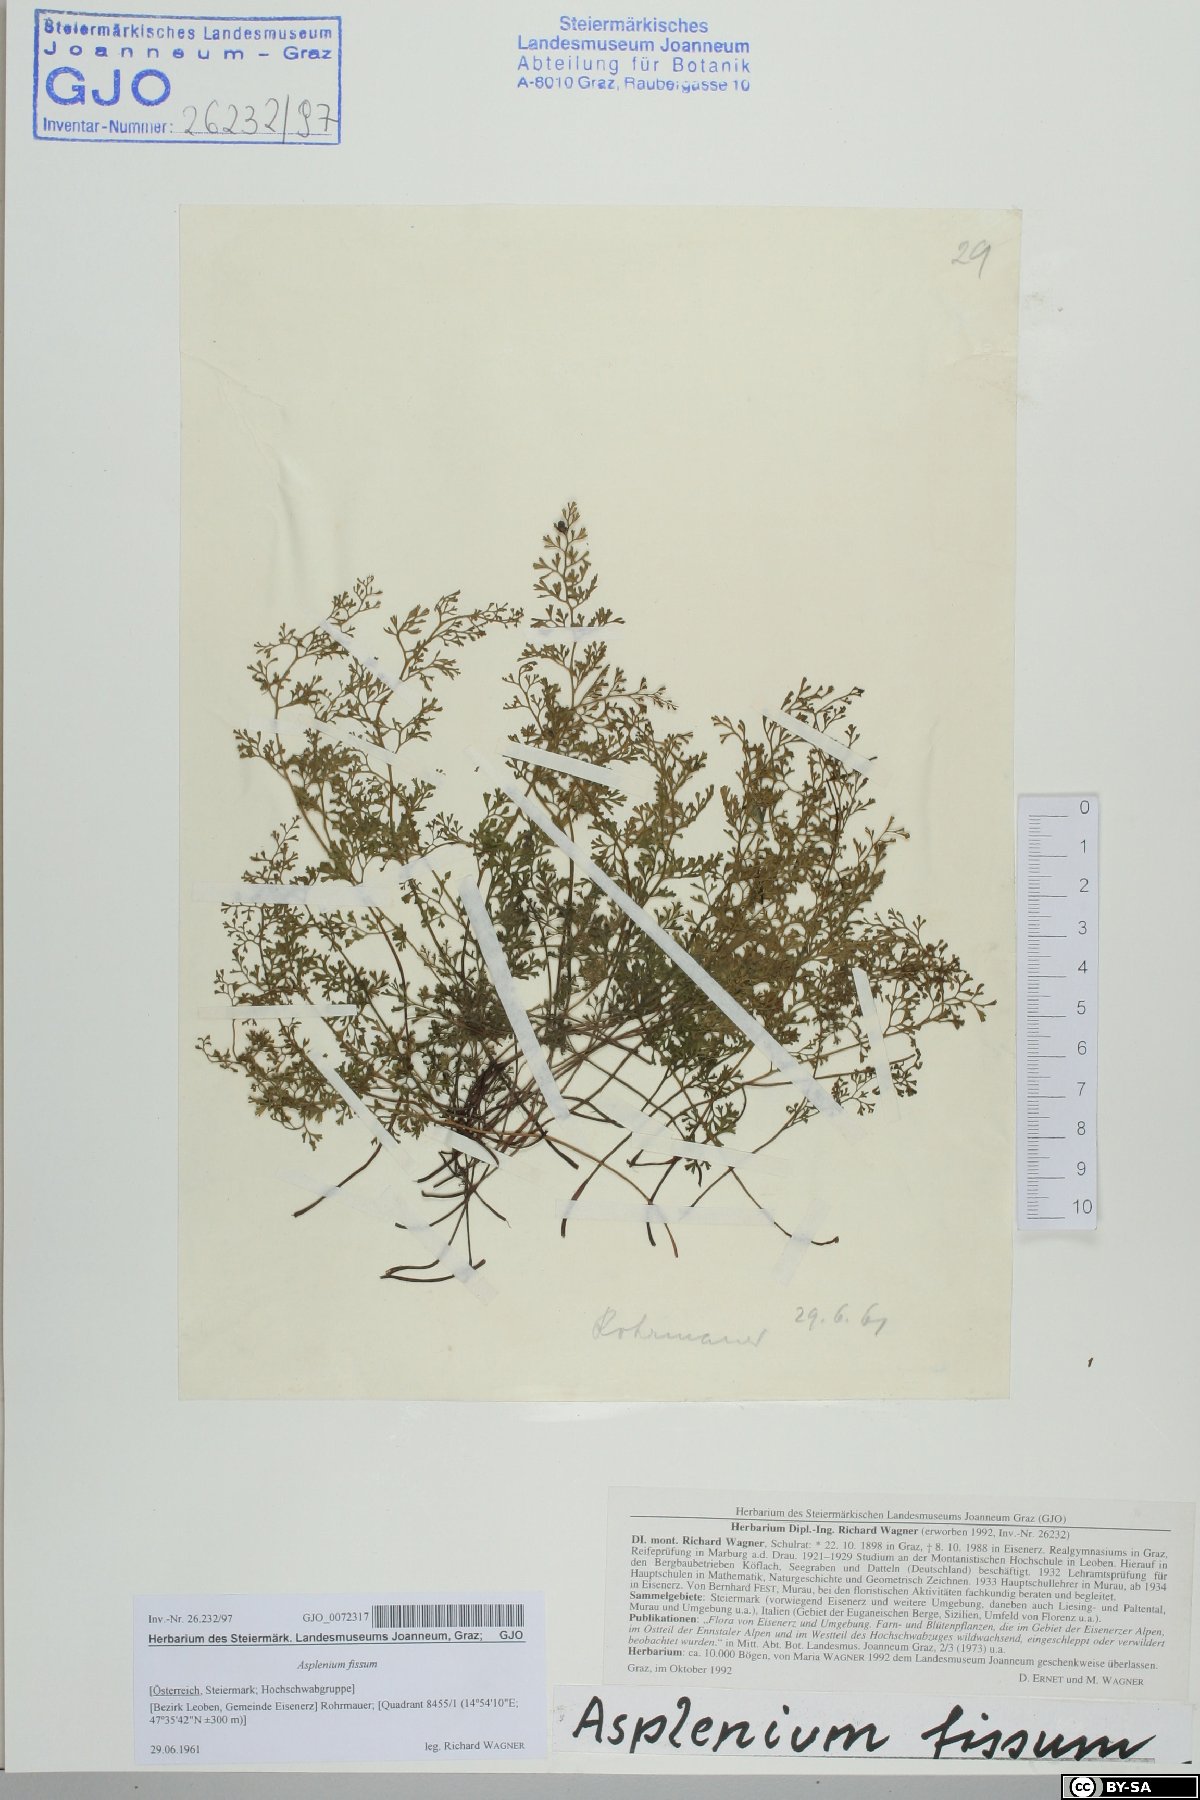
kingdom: Plantae
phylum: Tracheophyta
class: Polypodiopsida
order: Polypodiales
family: Aspleniaceae
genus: Asplenium
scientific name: Asplenium fissum
